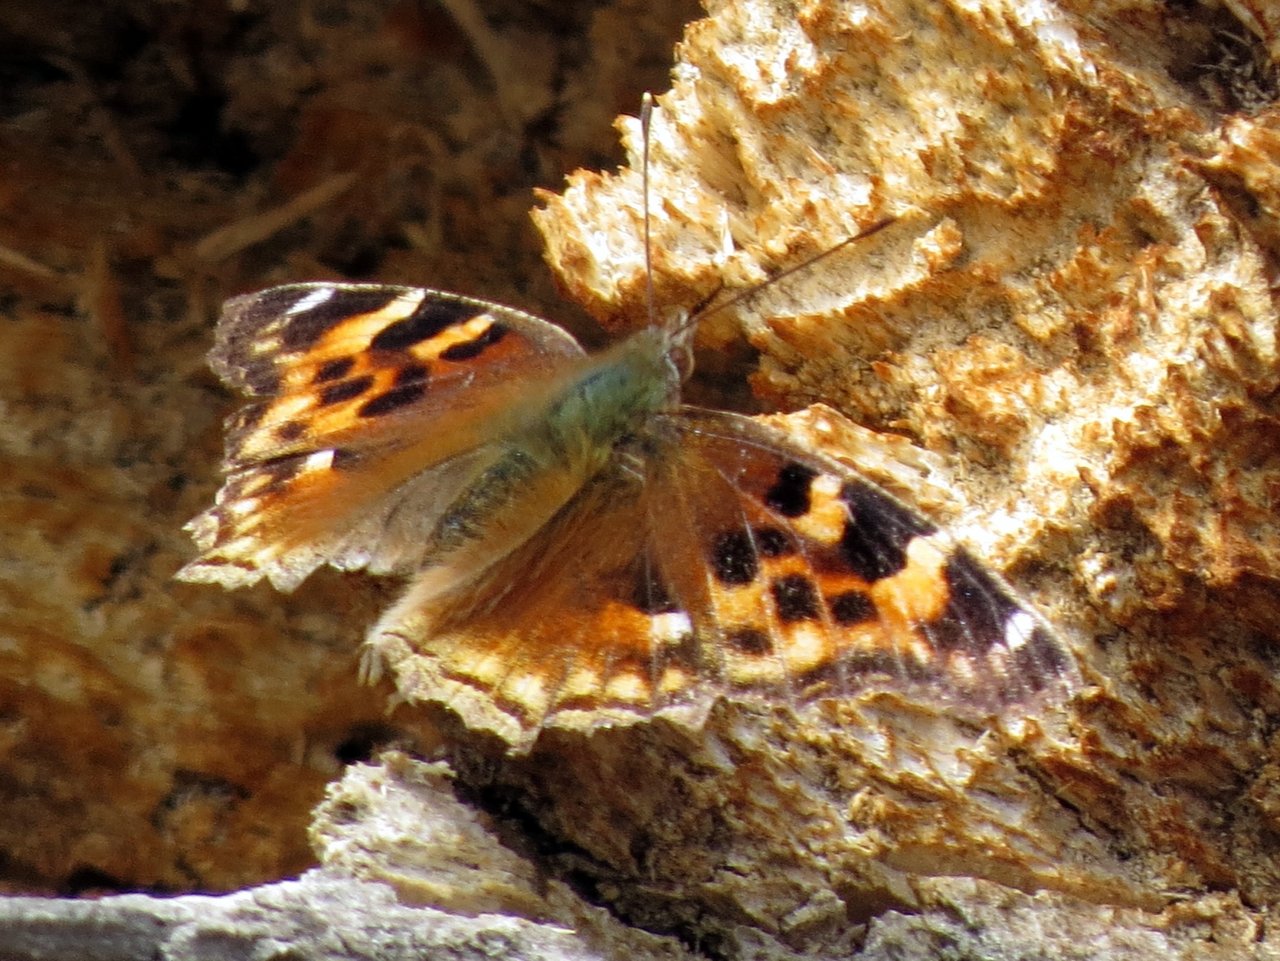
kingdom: Animalia
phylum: Arthropoda
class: Insecta
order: Lepidoptera
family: Nymphalidae
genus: Polygonia
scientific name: Polygonia vaualbum
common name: Compton Tortoiseshell
